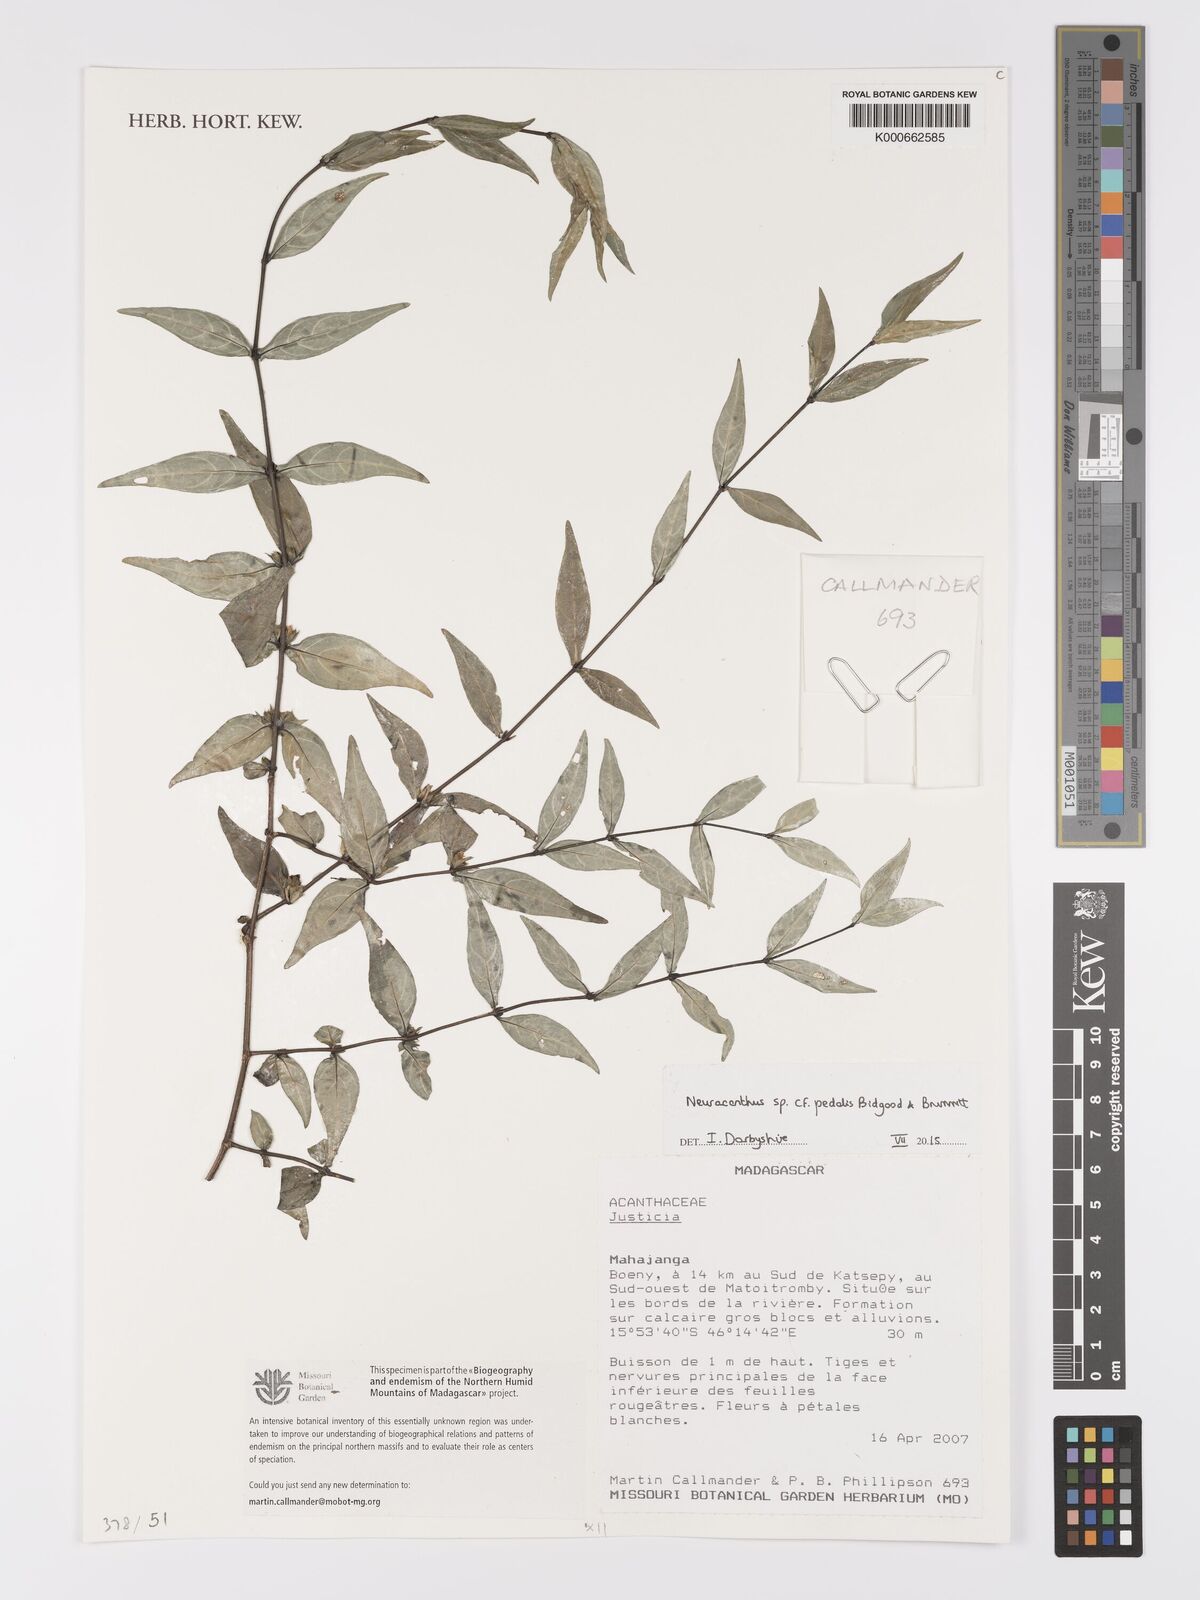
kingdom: Plantae
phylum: Tracheophyta
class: Magnoliopsida
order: Lamiales
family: Acanthaceae
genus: Neuracanthus
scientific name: Neuracanthus pedalis
